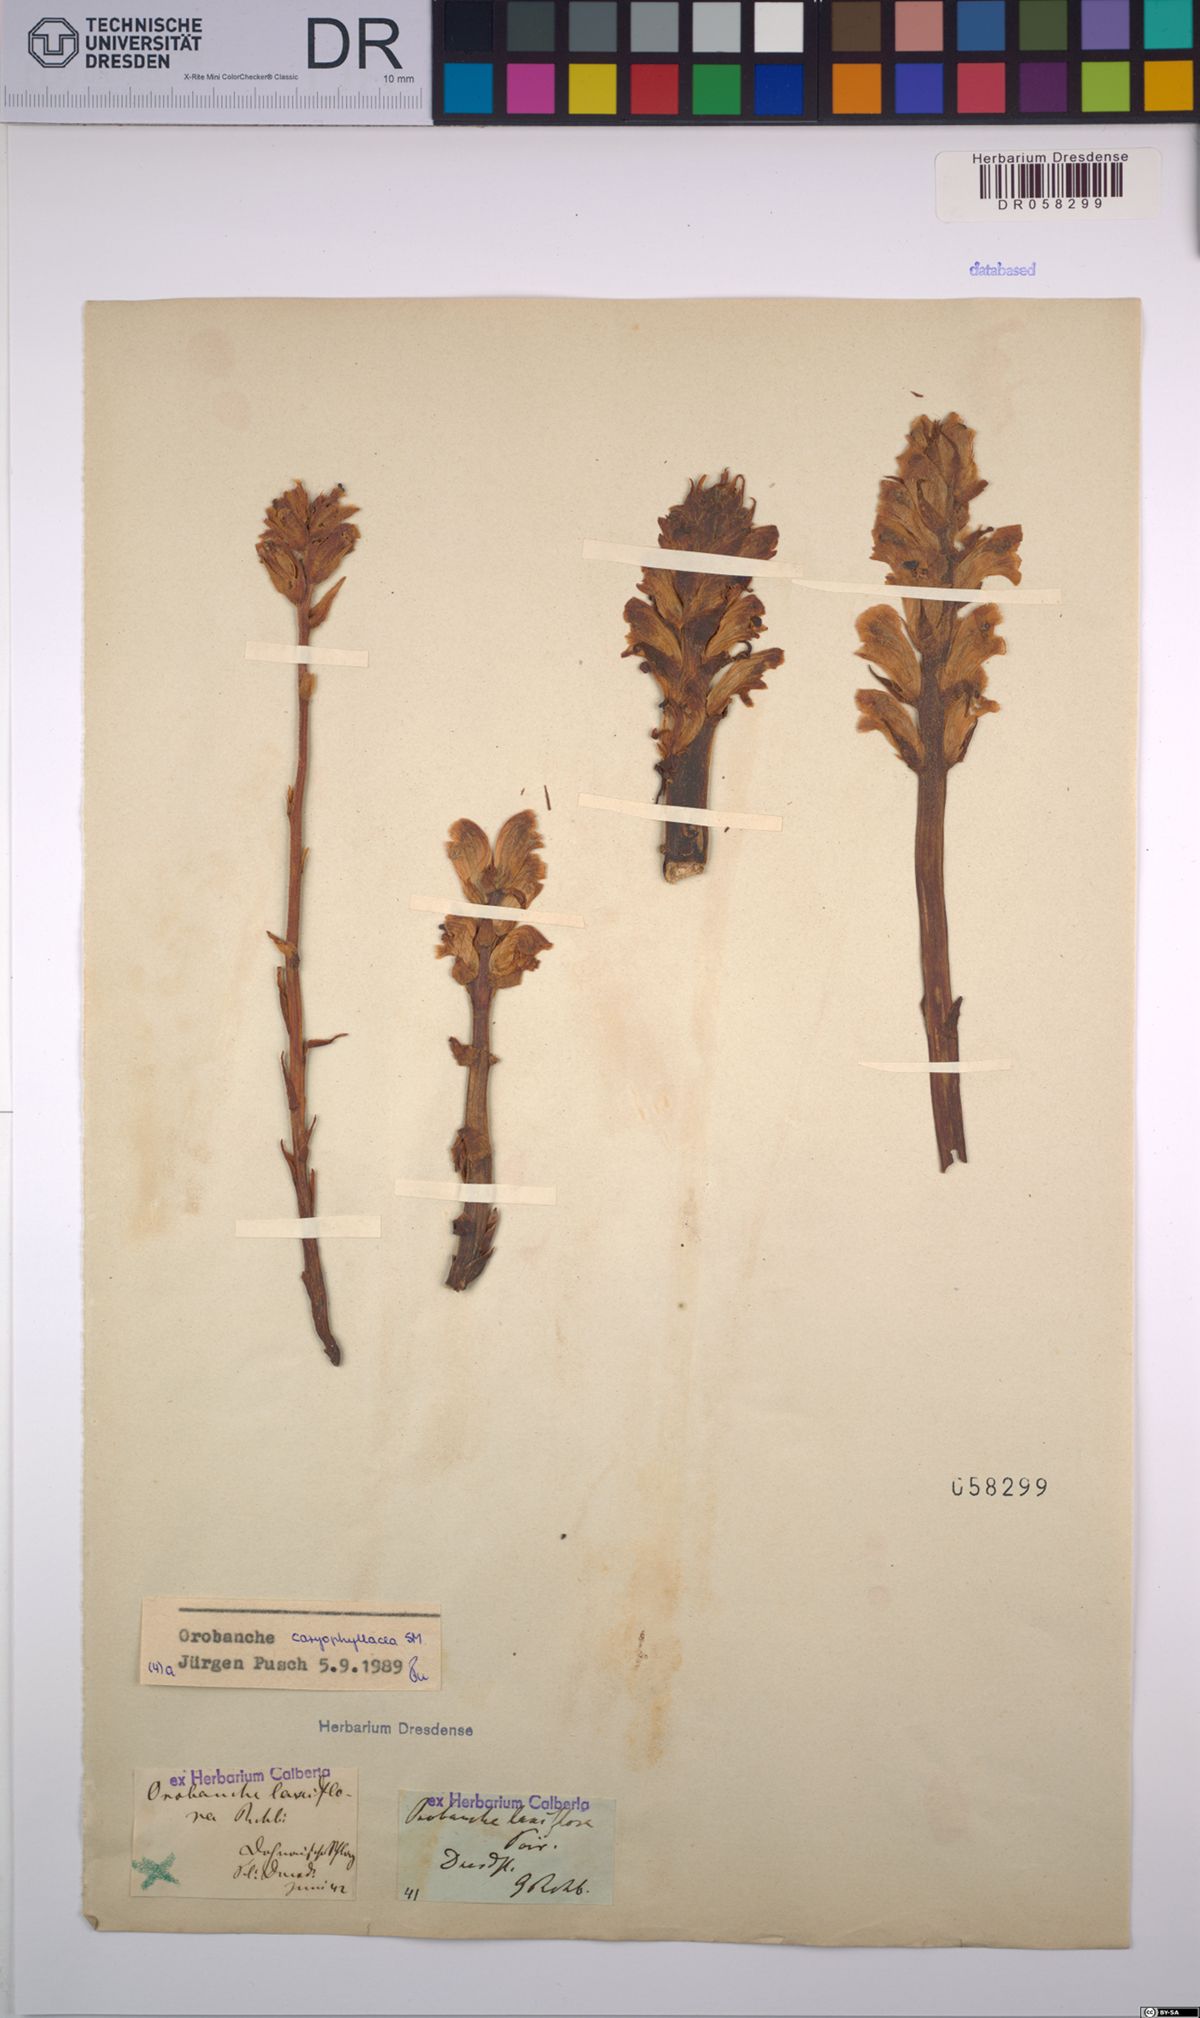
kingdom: Plantae
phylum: Tracheophyta
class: Magnoliopsida
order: Lamiales
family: Orobanchaceae
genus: Orobanche
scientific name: Orobanche caryophyllacea
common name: Bedstraw broomrape
